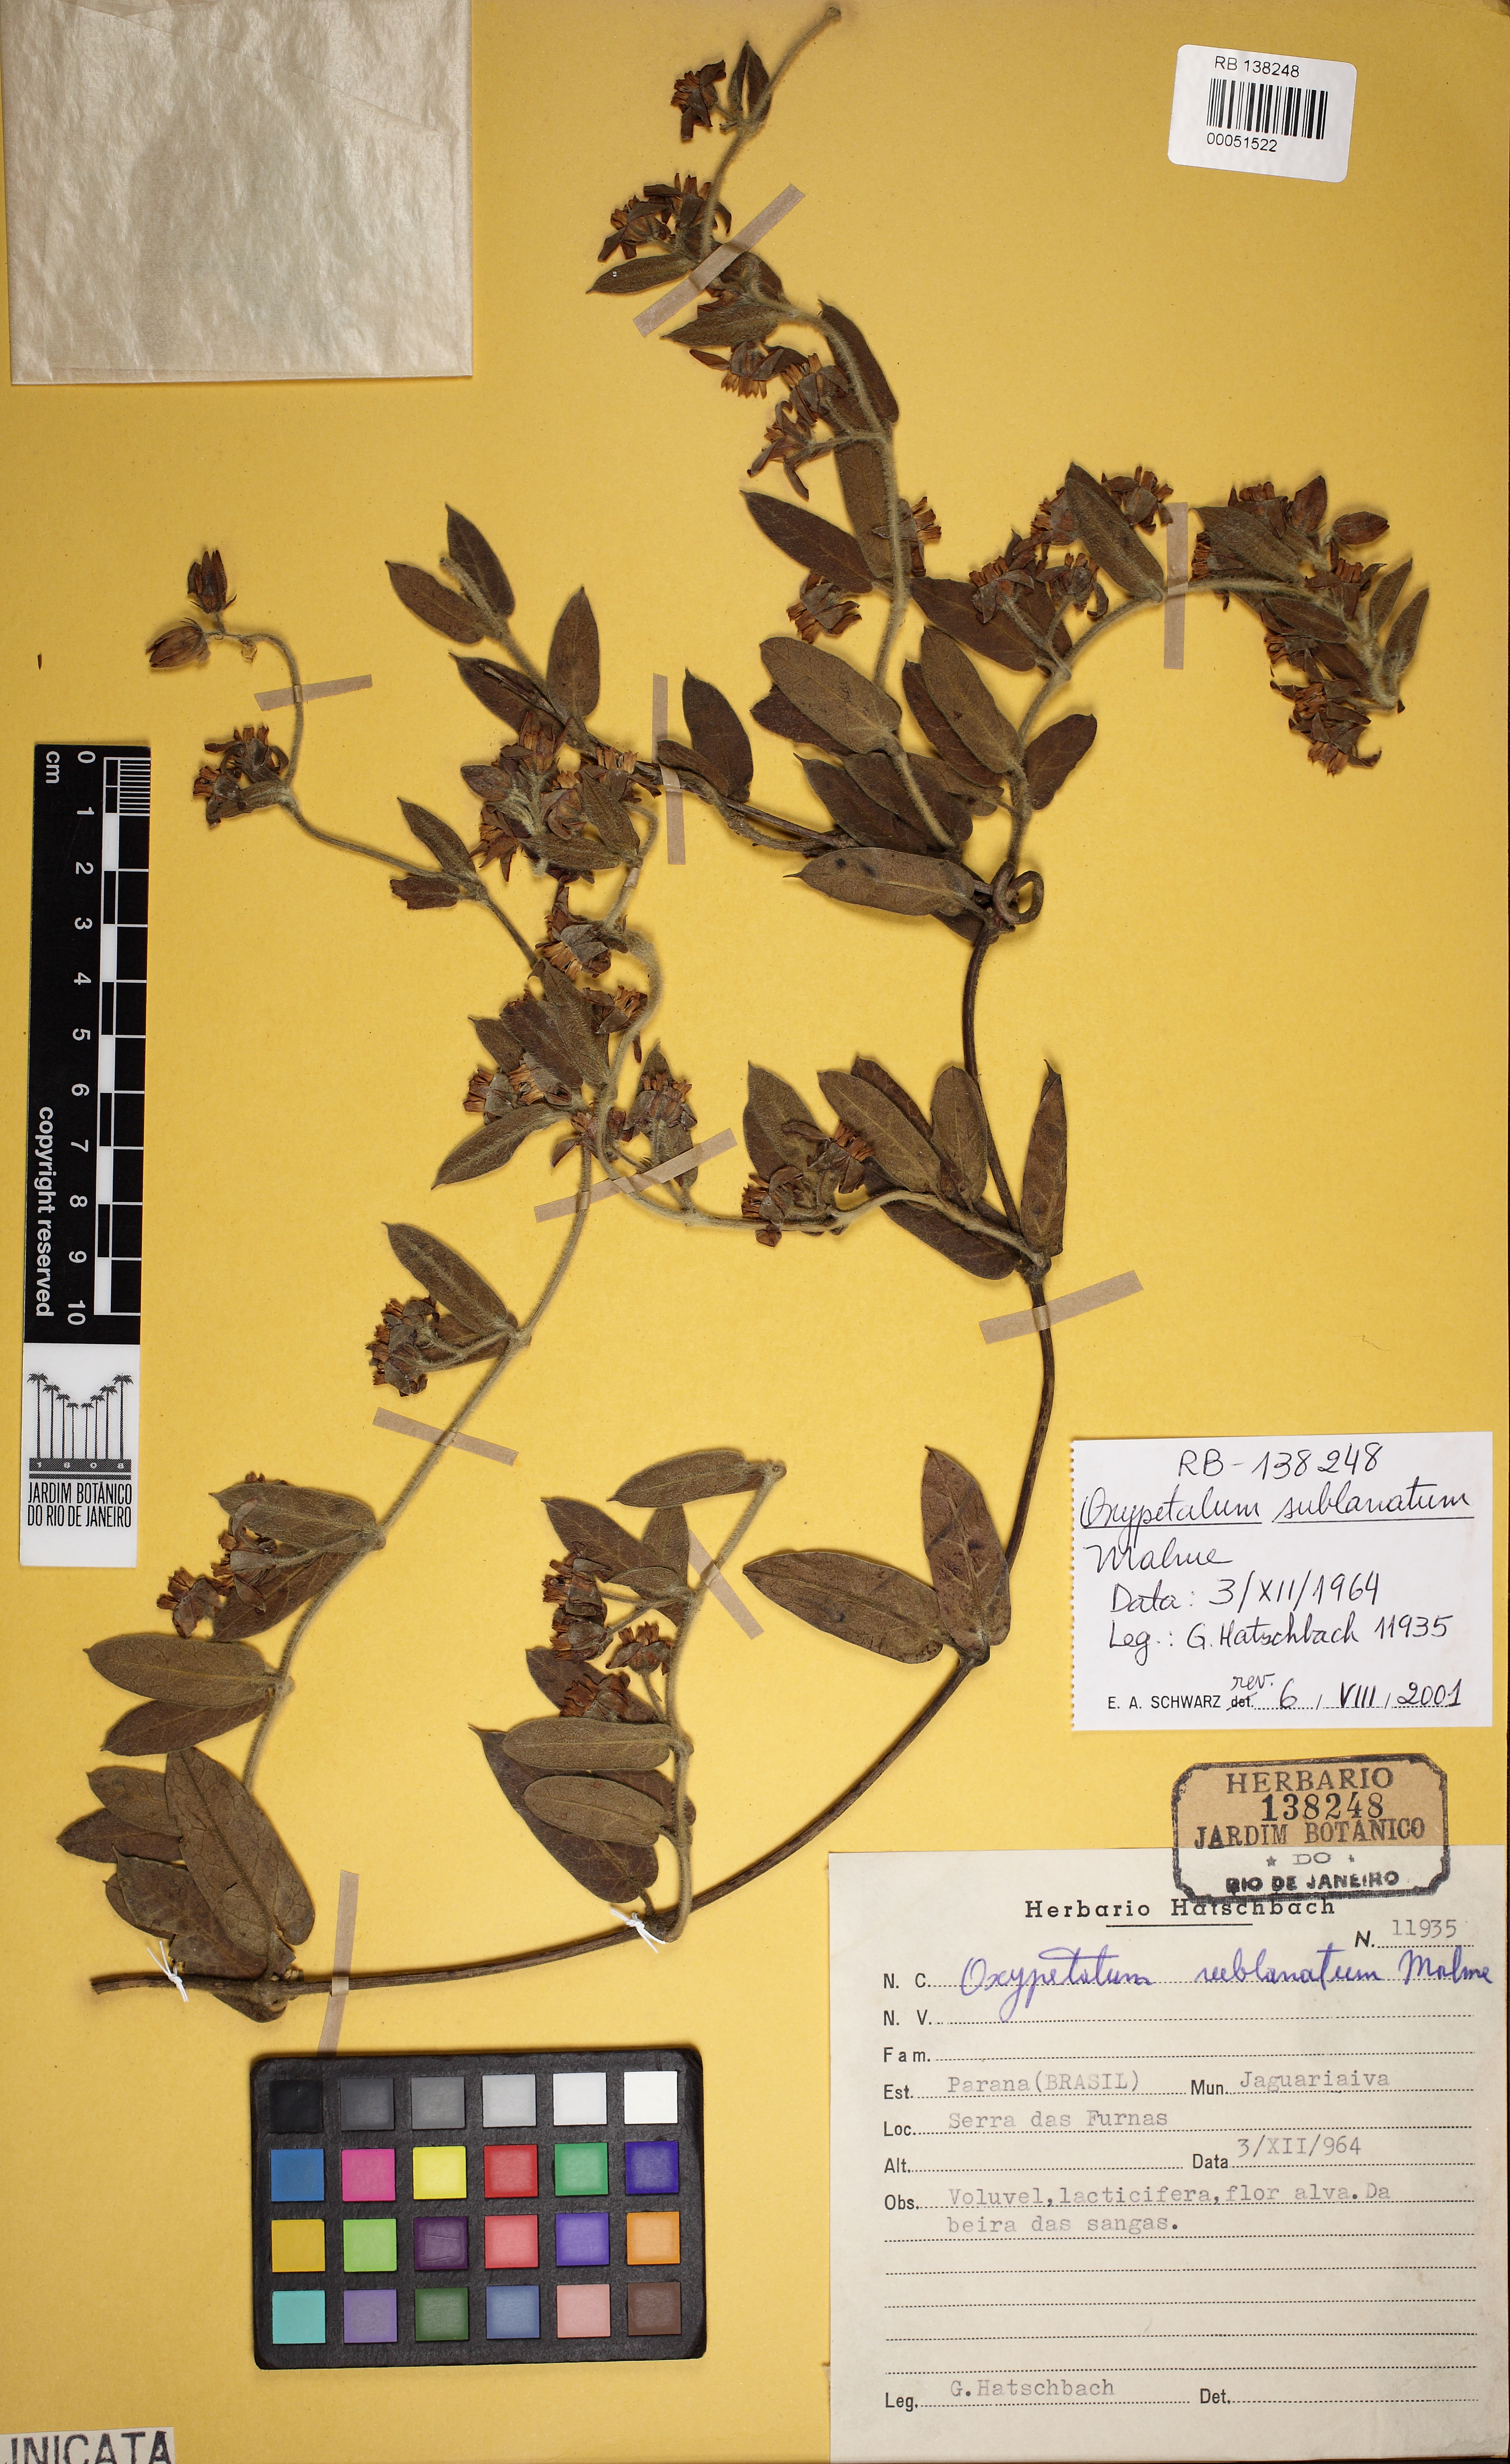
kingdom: Plantae
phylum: Tracheophyta
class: Magnoliopsida
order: Gentianales
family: Apocynaceae
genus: Oxypetalum
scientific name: Oxypetalum sublanatum
